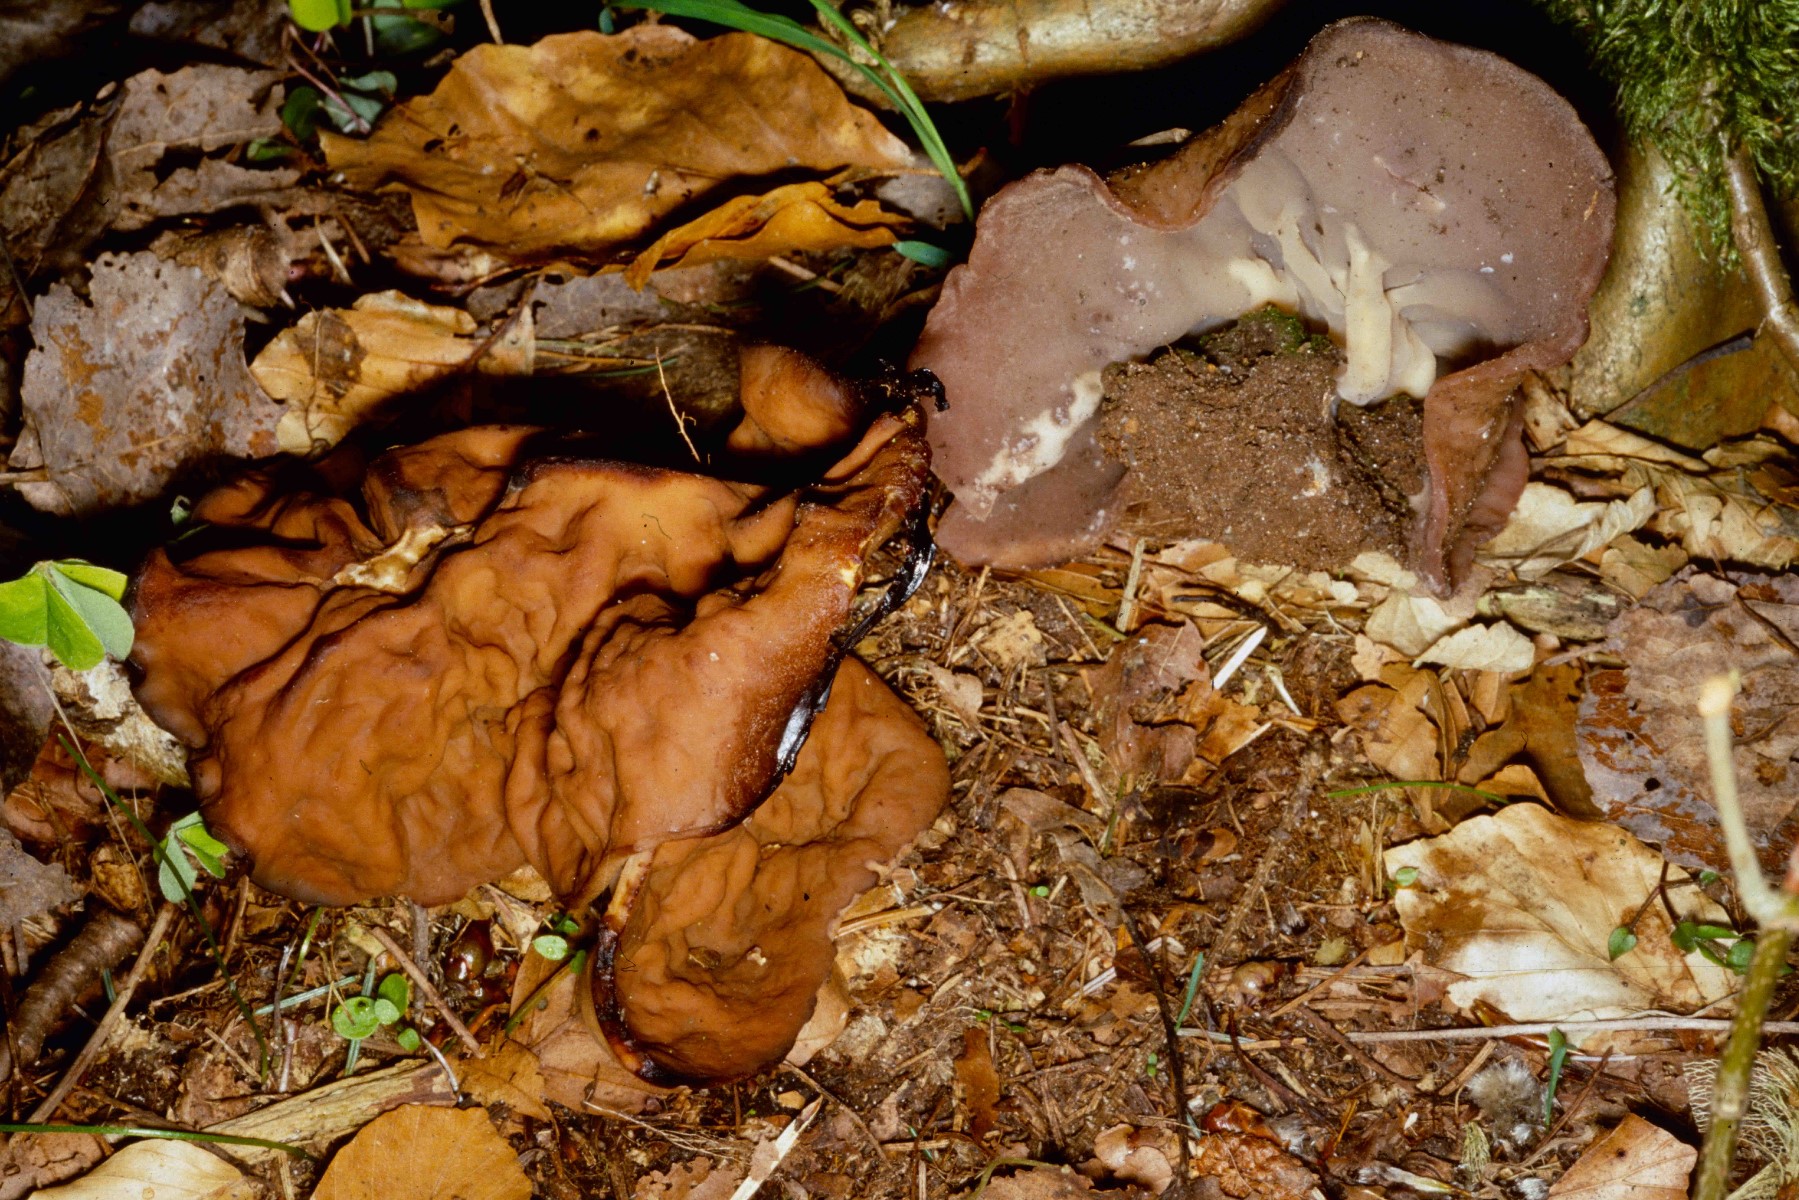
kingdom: Fungi
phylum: Ascomycota
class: Pezizomycetes
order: Pezizales
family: Discinaceae
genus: Discina
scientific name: Discina ancilis
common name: udbredt stenmorkel
